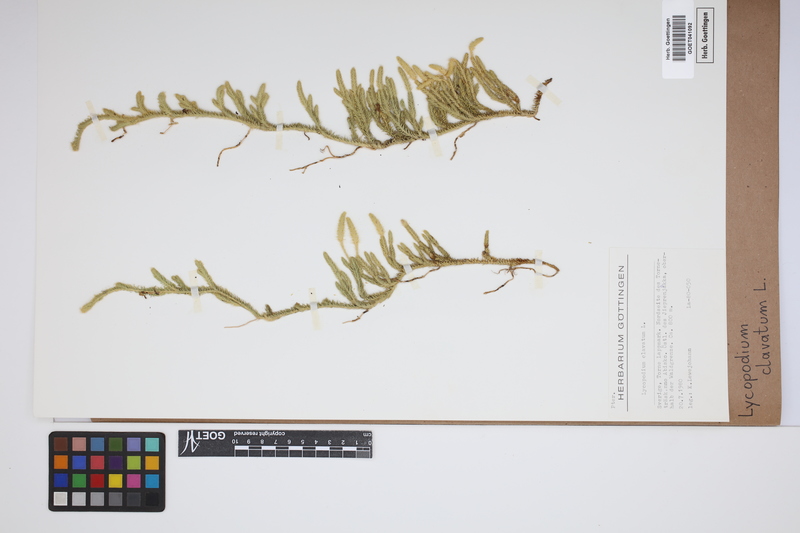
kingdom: Plantae
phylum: Tracheophyta
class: Lycopodiopsida
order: Lycopodiales
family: Lycopodiaceae
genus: Lycopodium
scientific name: Lycopodium clavatum
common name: Stag's-horn clubmoss
